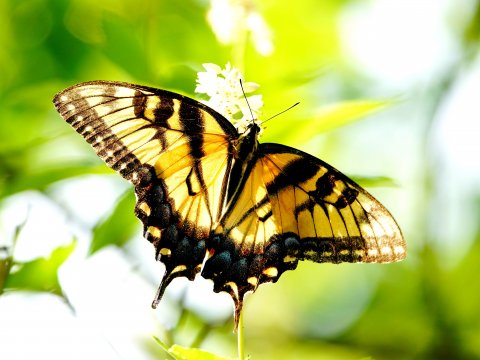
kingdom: Animalia
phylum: Arthropoda
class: Insecta
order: Lepidoptera
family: Papilionidae
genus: Pterourus
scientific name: Pterourus glaucus
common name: Eastern Tiger Swallowtail
